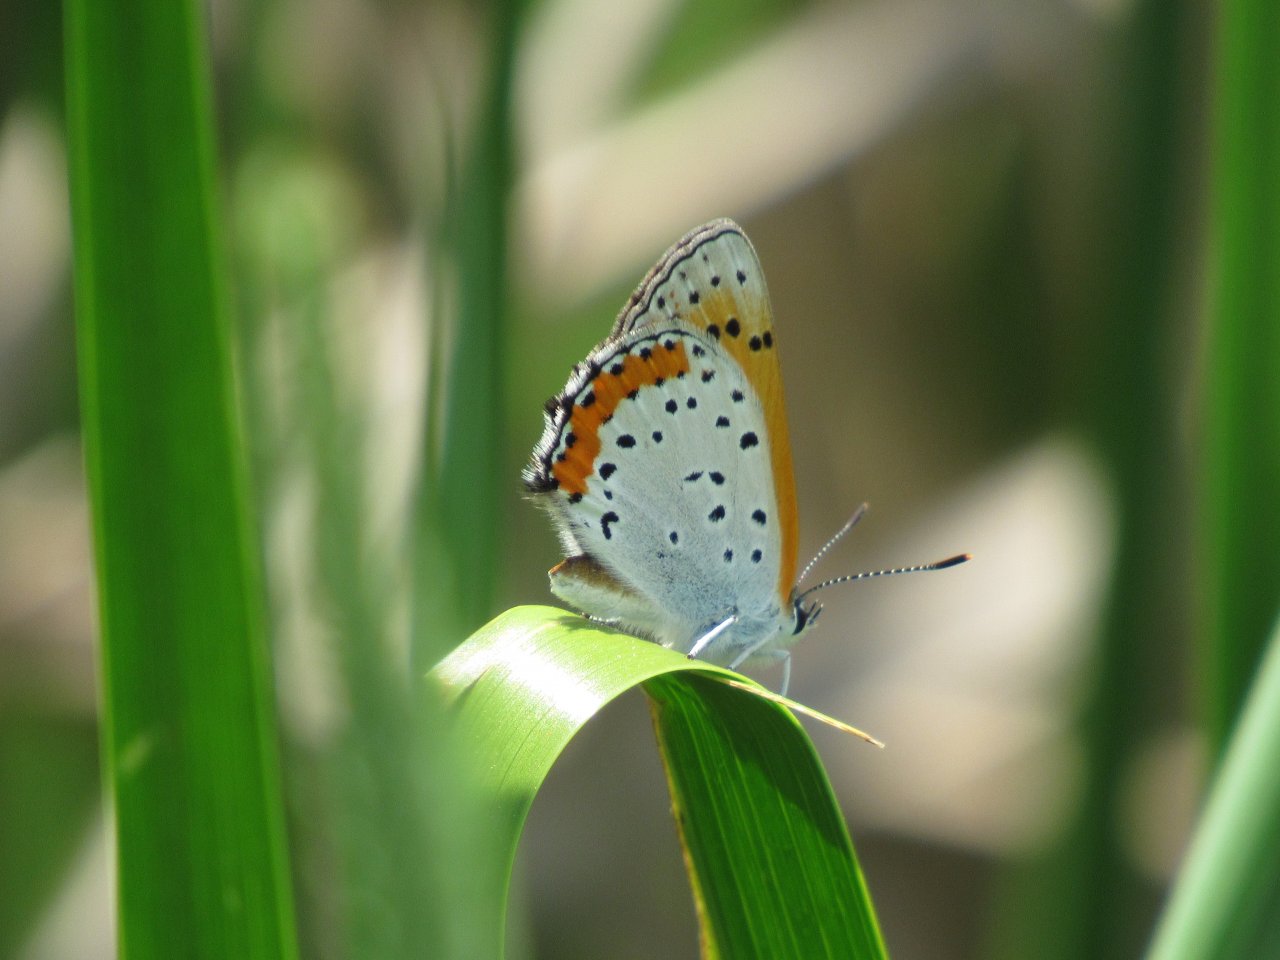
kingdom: Animalia
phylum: Arthropoda
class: Insecta
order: Lepidoptera
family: Sesiidae
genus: Sesia
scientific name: Sesia Lycaena hyllus
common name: Bronze Copper
